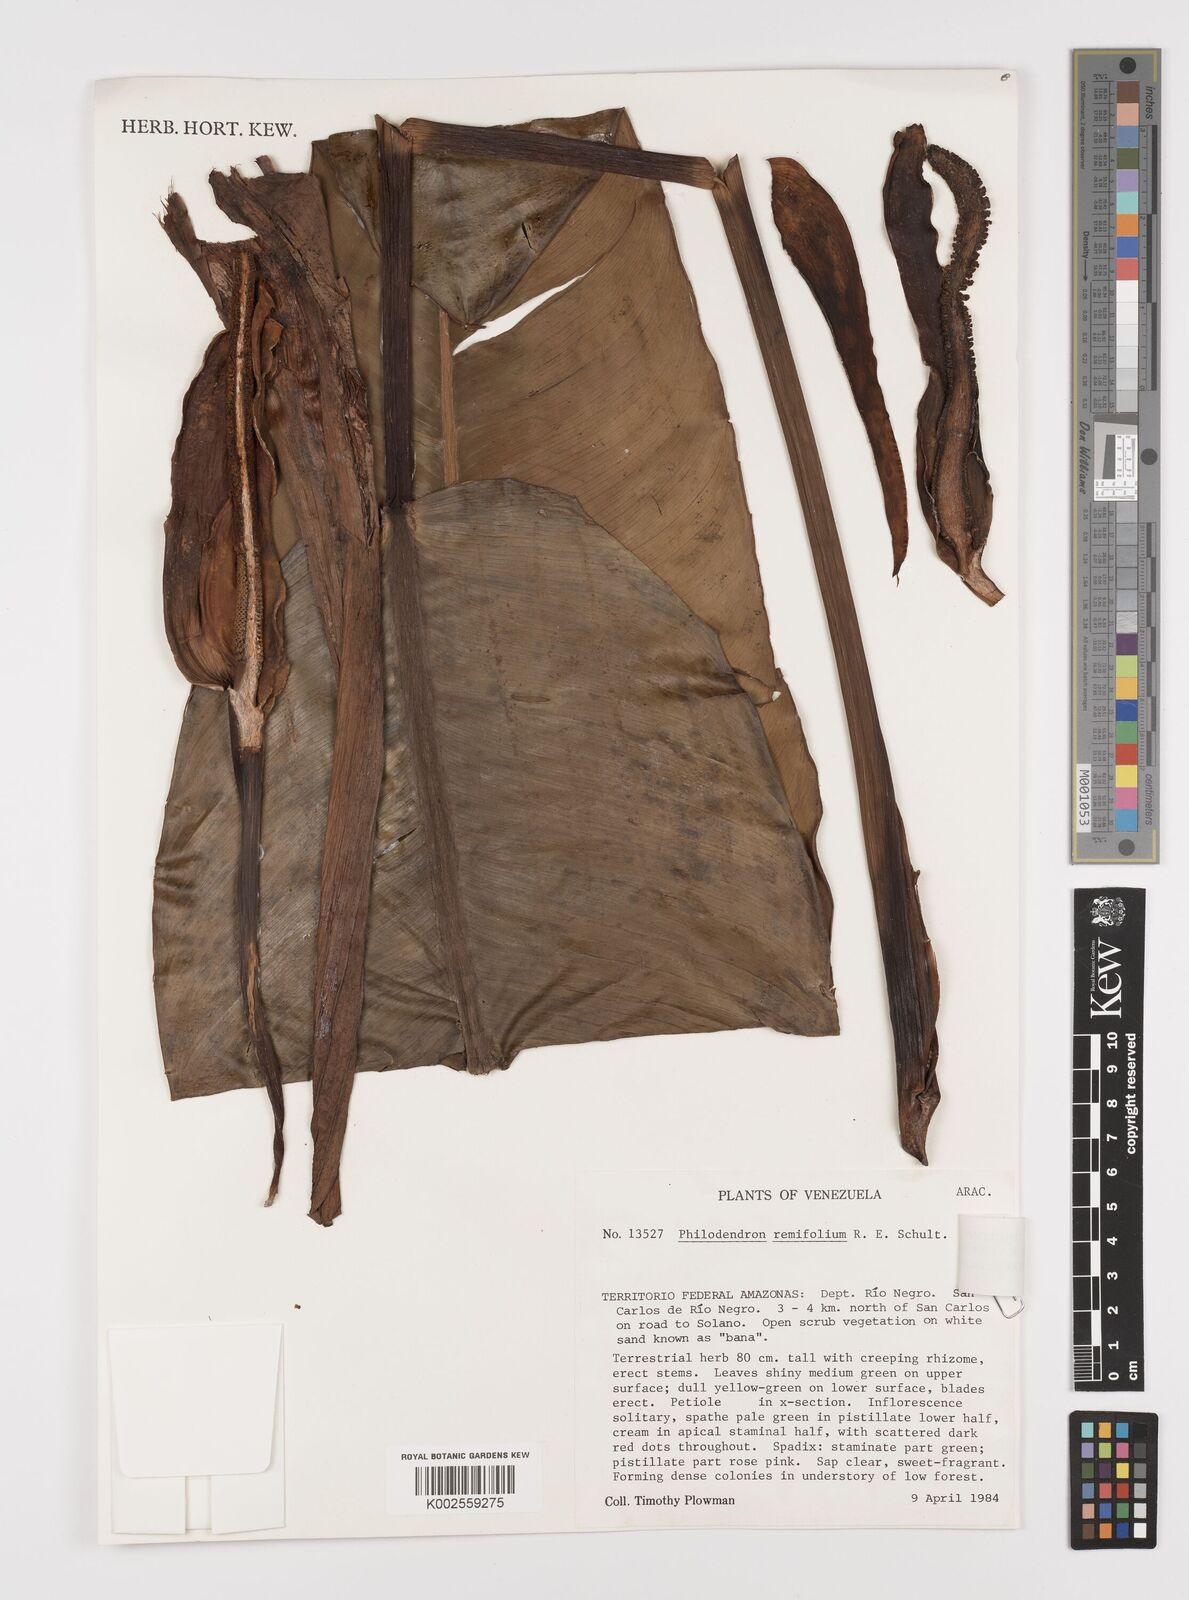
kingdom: Plantae
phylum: Tracheophyta
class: Liliopsida
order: Alismatales
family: Araceae
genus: Philodendron
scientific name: Philodendron remifolium
